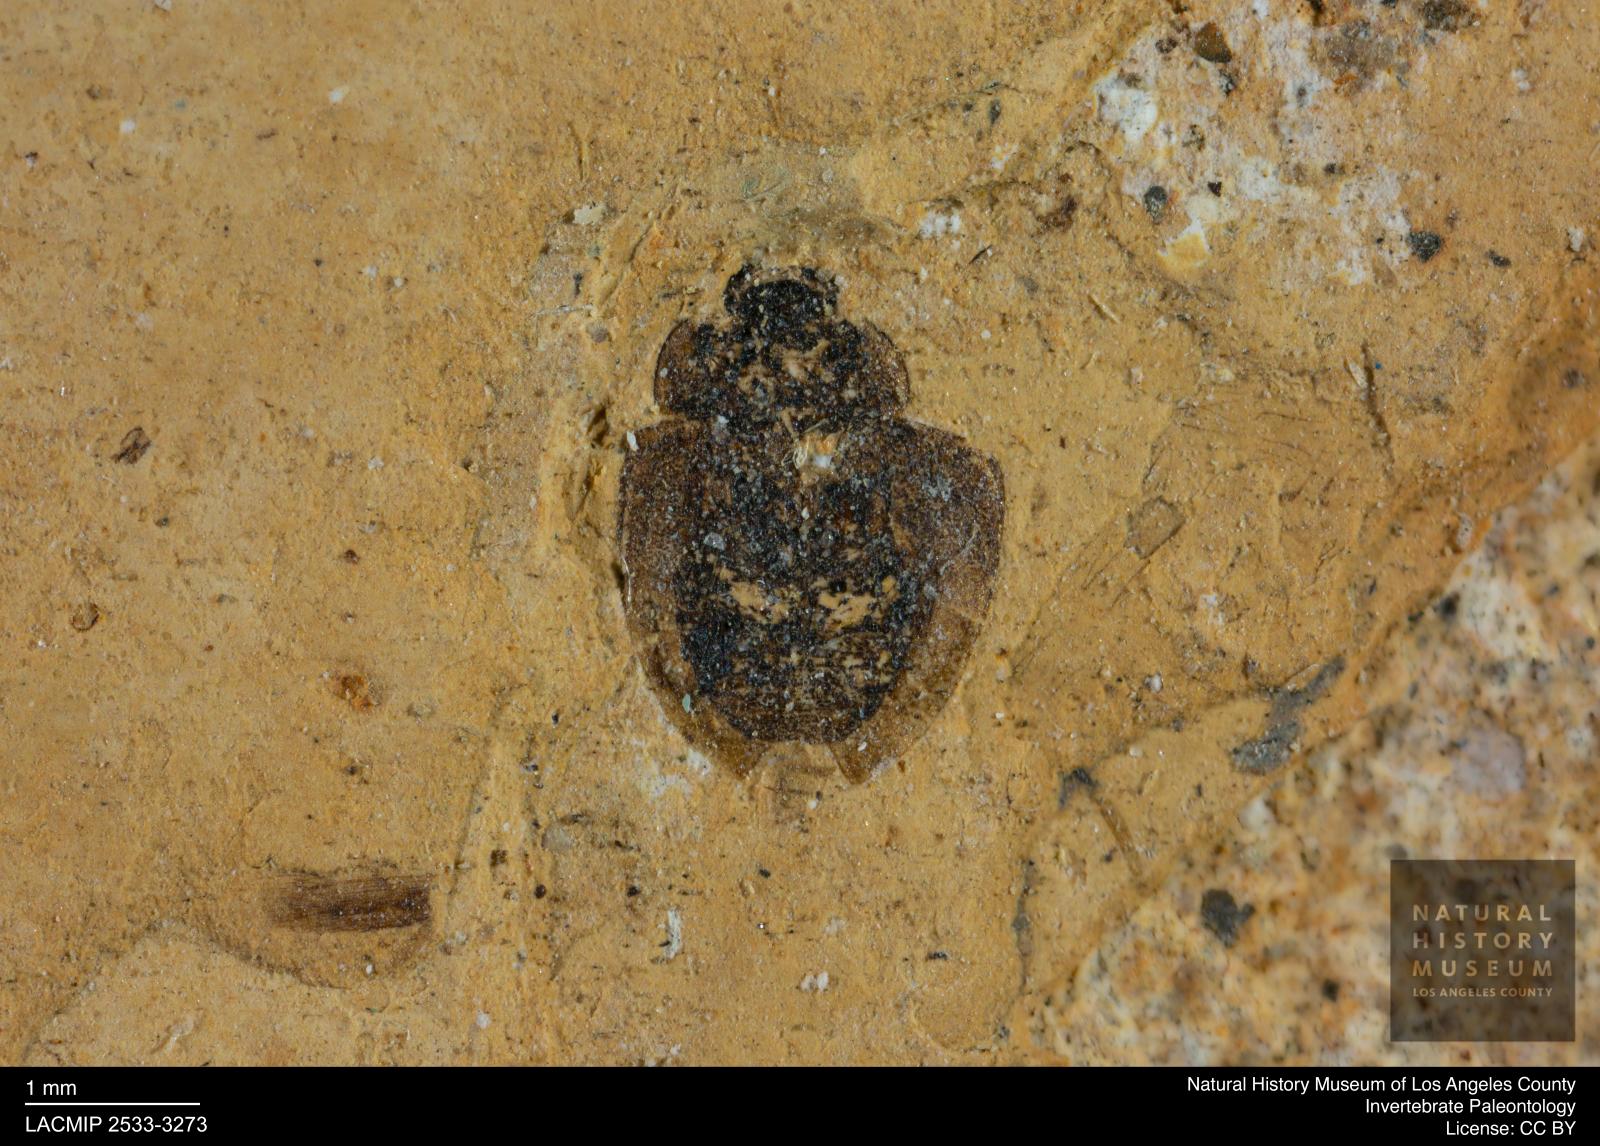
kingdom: Animalia
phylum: Arthropoda
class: Insecta
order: Coleoptera
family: Hydrophilidae
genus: Paracymus
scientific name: Paracymus excitatus
